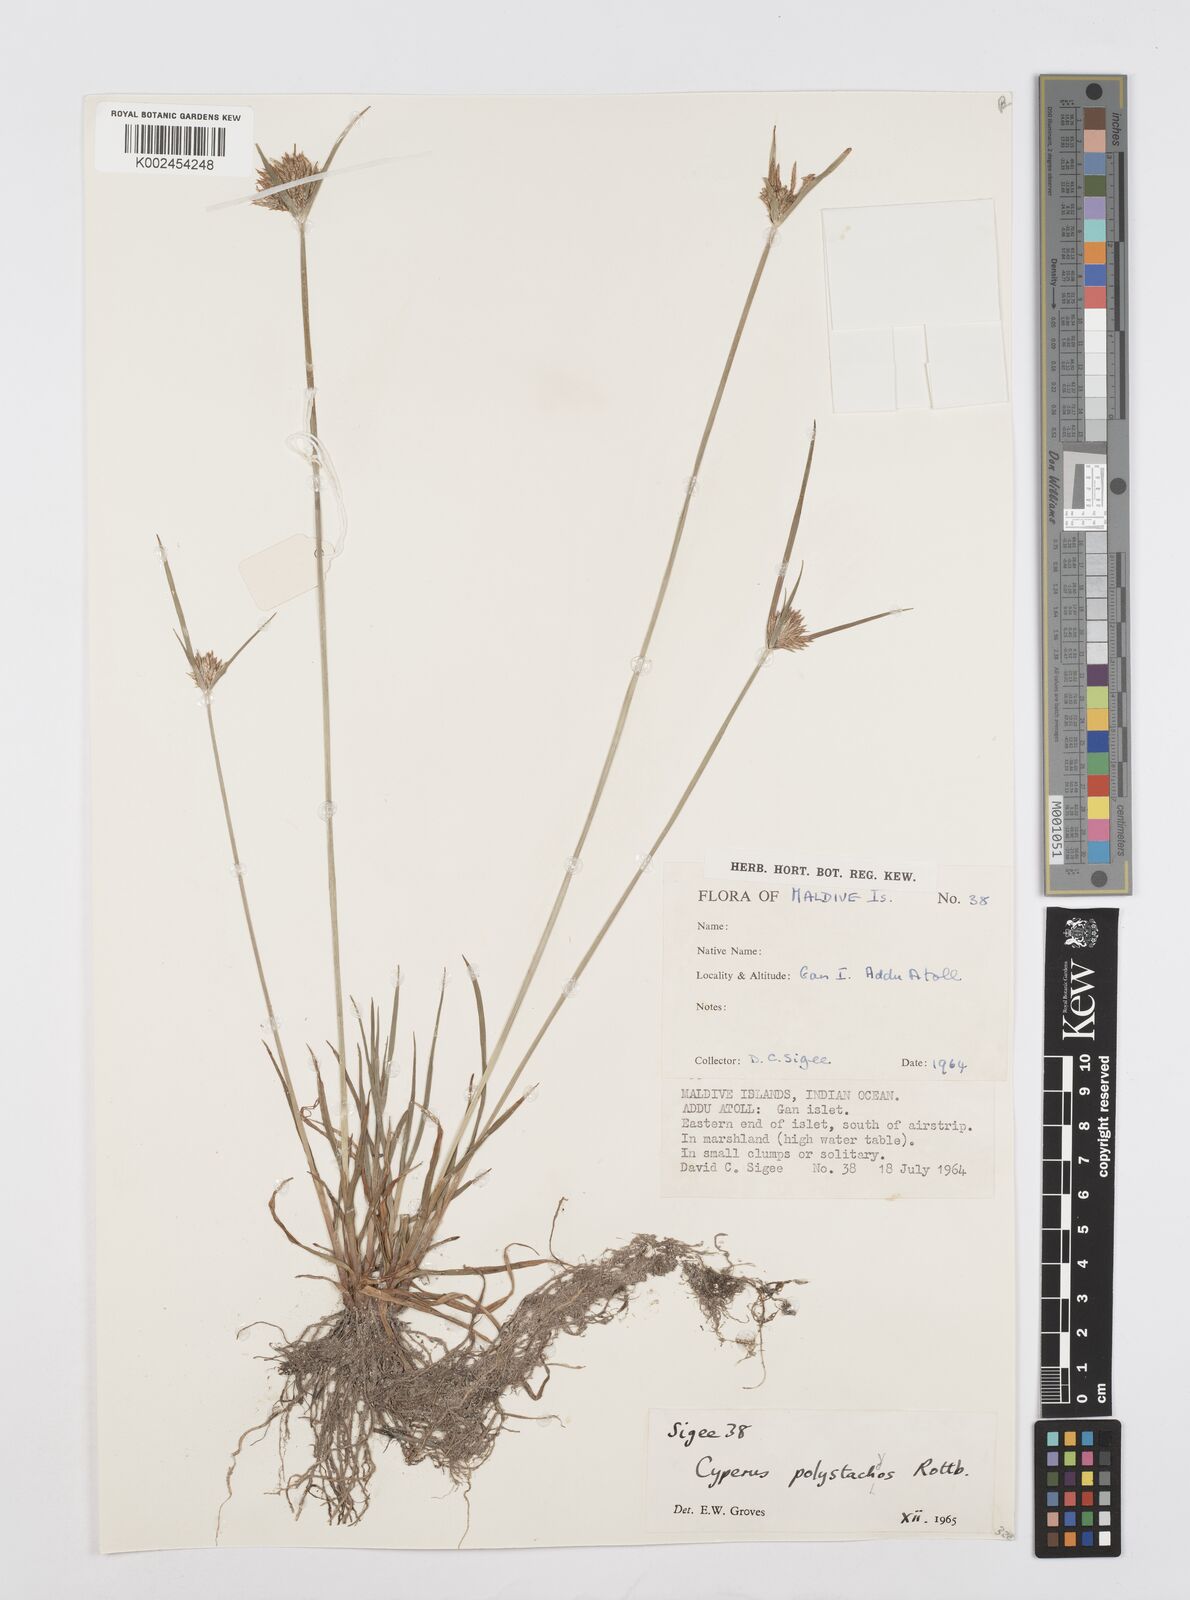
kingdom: Plantae
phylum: Tracheophyta
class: Liliopsida
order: Poales
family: Cyperaceae
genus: Cyperus
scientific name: Cyperus polystachyos
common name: Bunchy flat sedge
